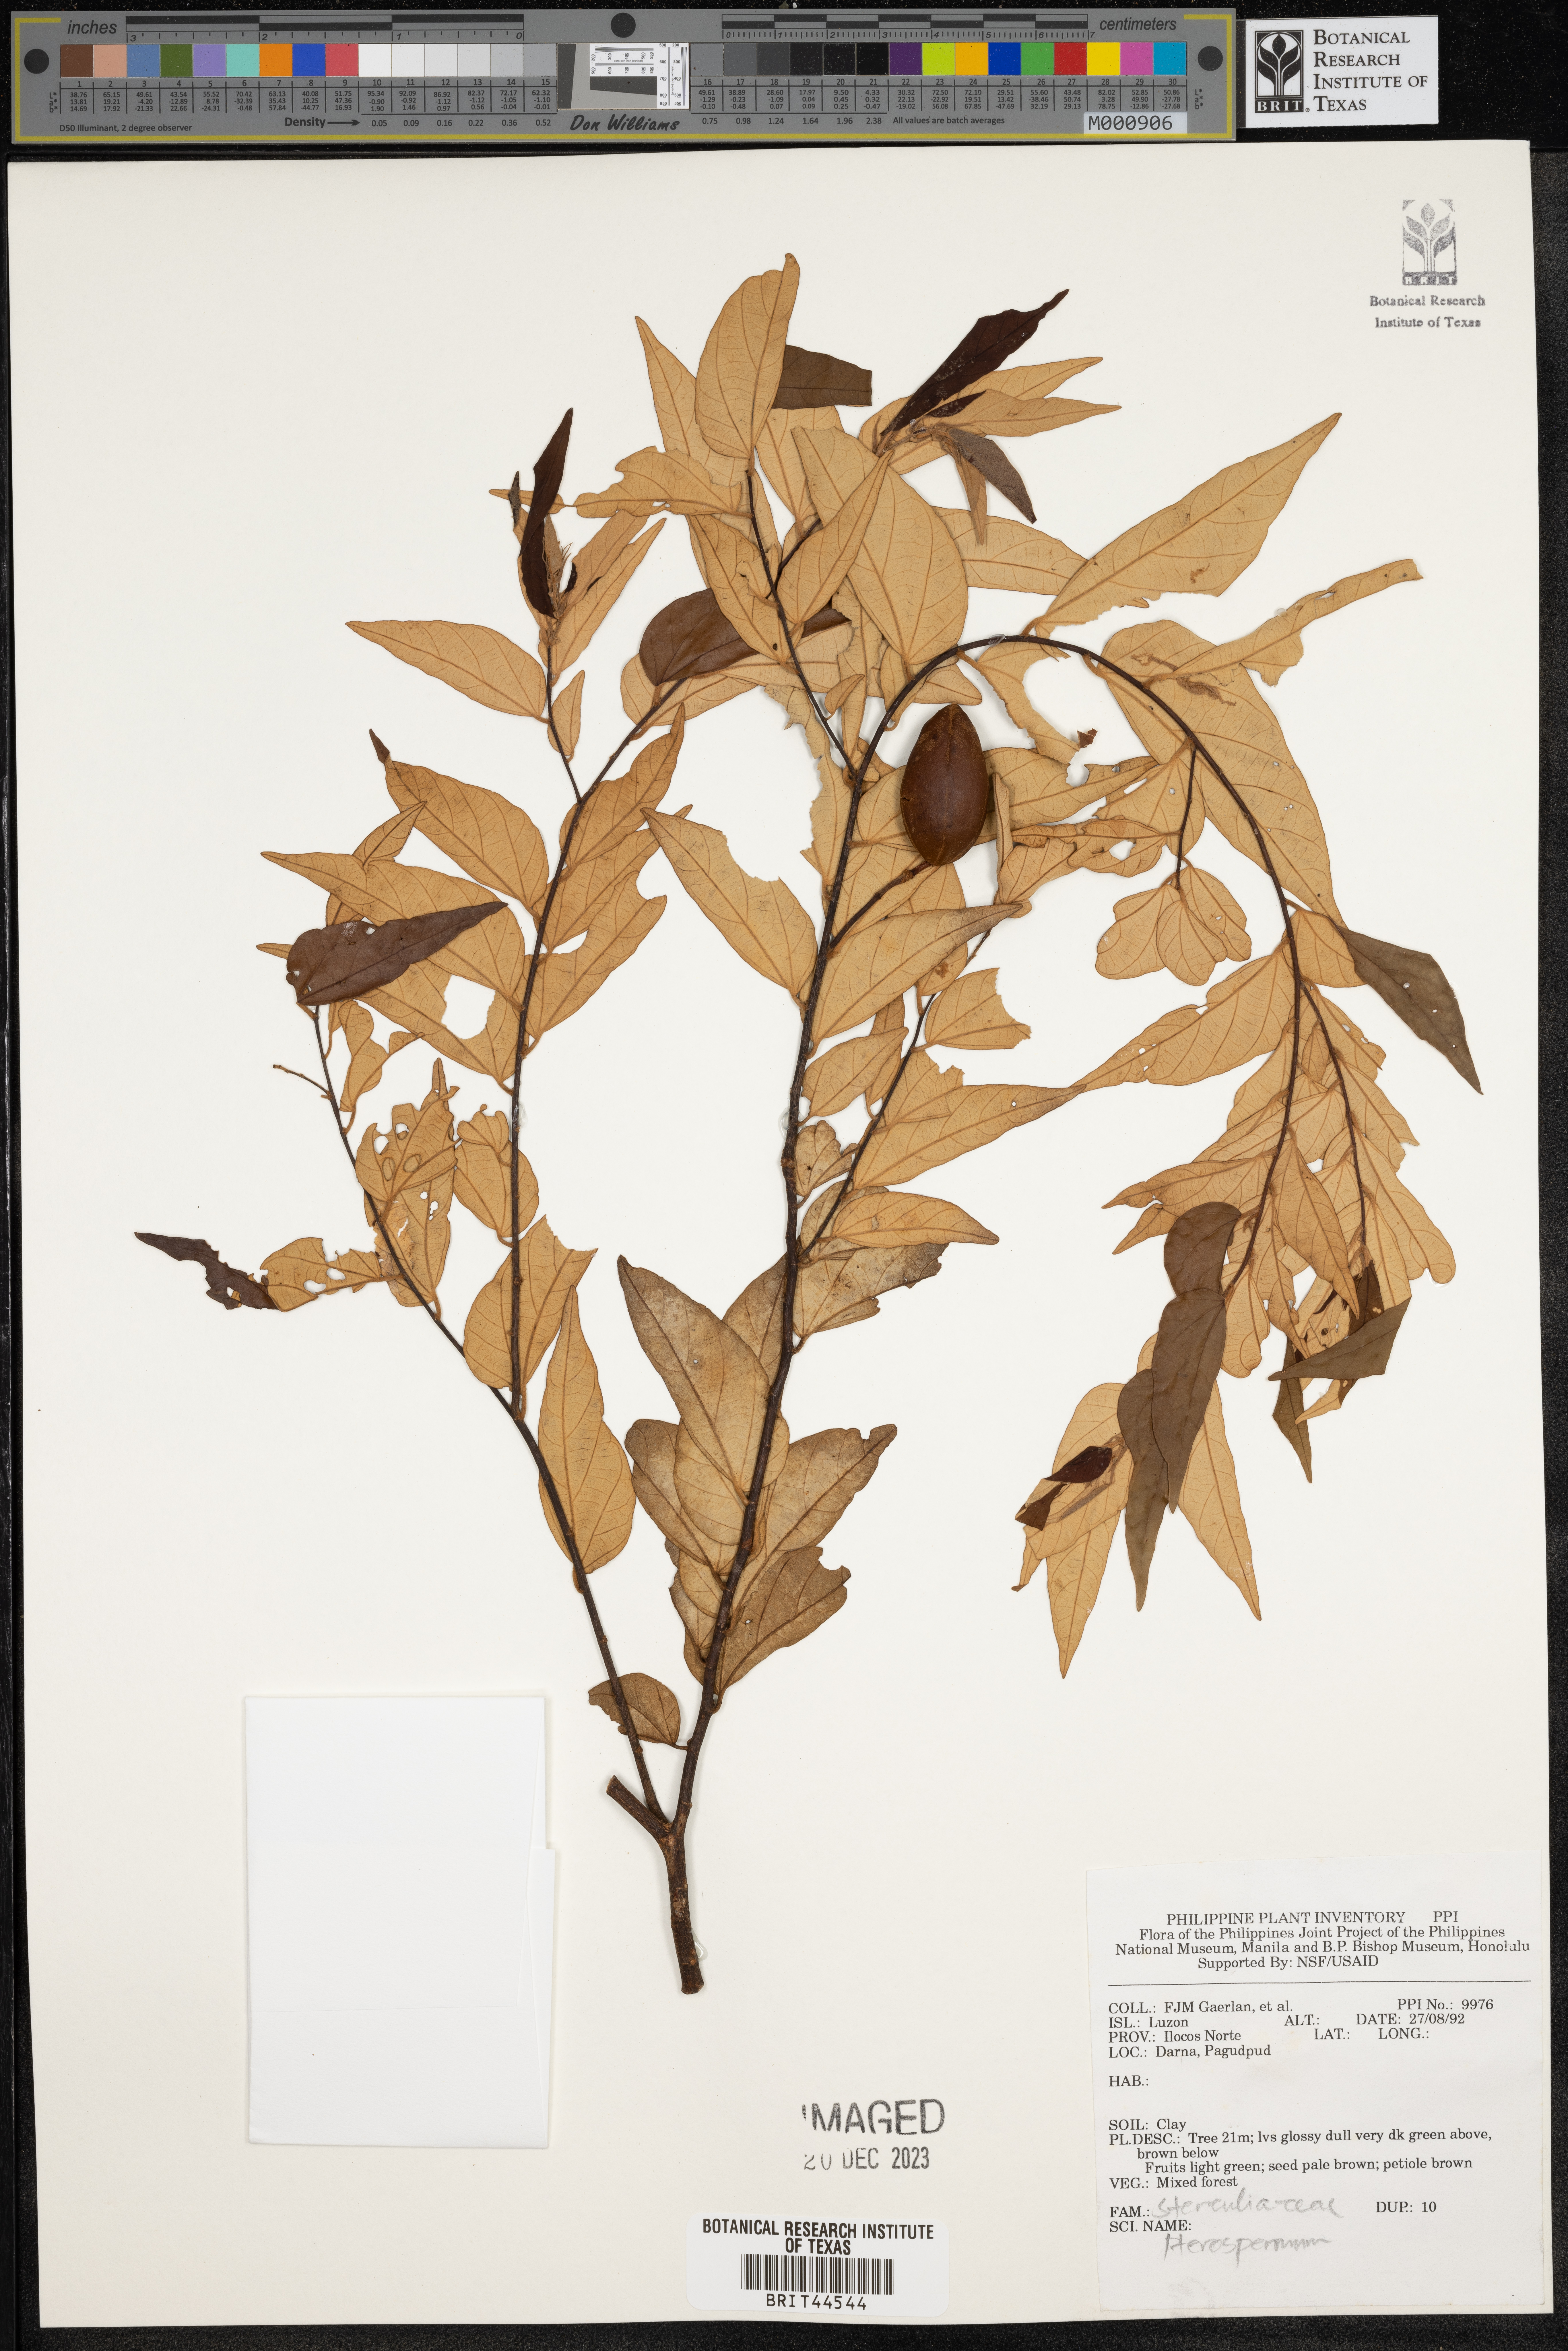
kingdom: Plantae
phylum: Tracheophyta
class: Magnoliopsida
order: Malvales
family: Malvaceae
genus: Pterospermum
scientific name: Pterospermum
